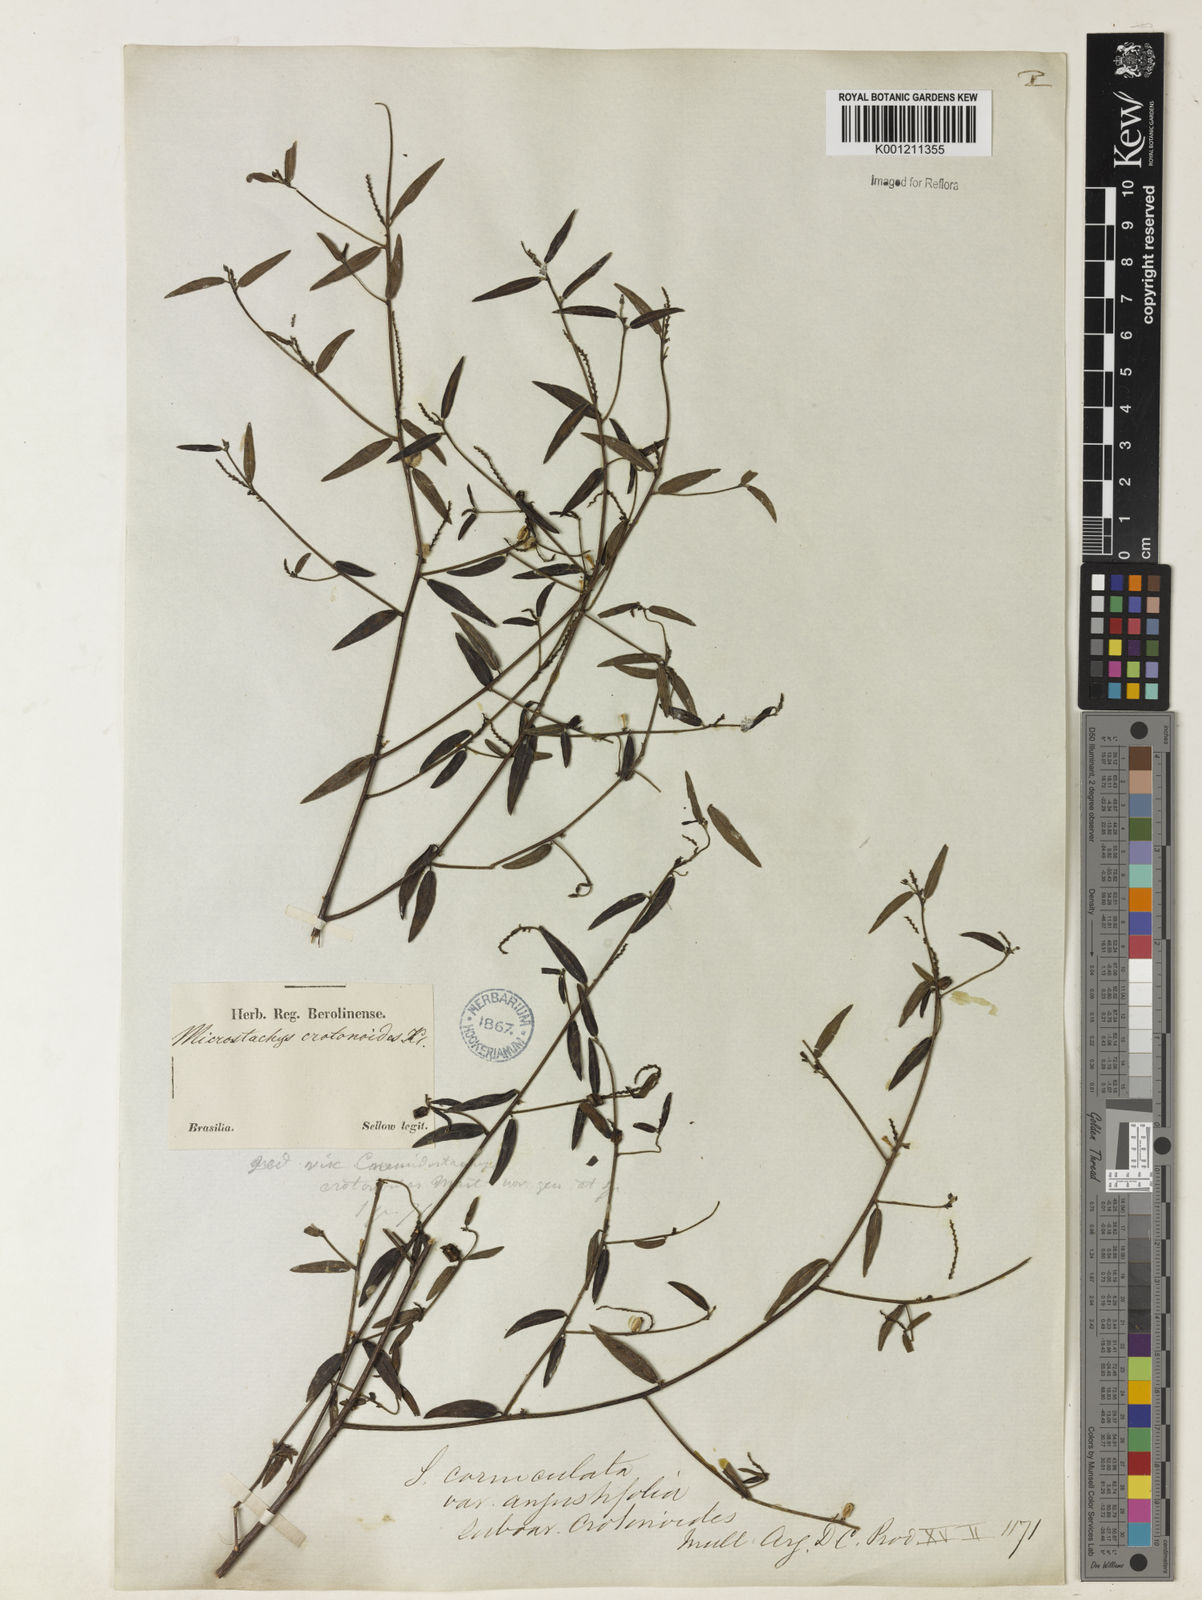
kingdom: Plantae
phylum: Tracheophyta
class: Magnoliopsida
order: Malpighiales
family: Euphorbiaceae
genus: Microstachys
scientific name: Microstachys corniculata
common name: Hato tejas
